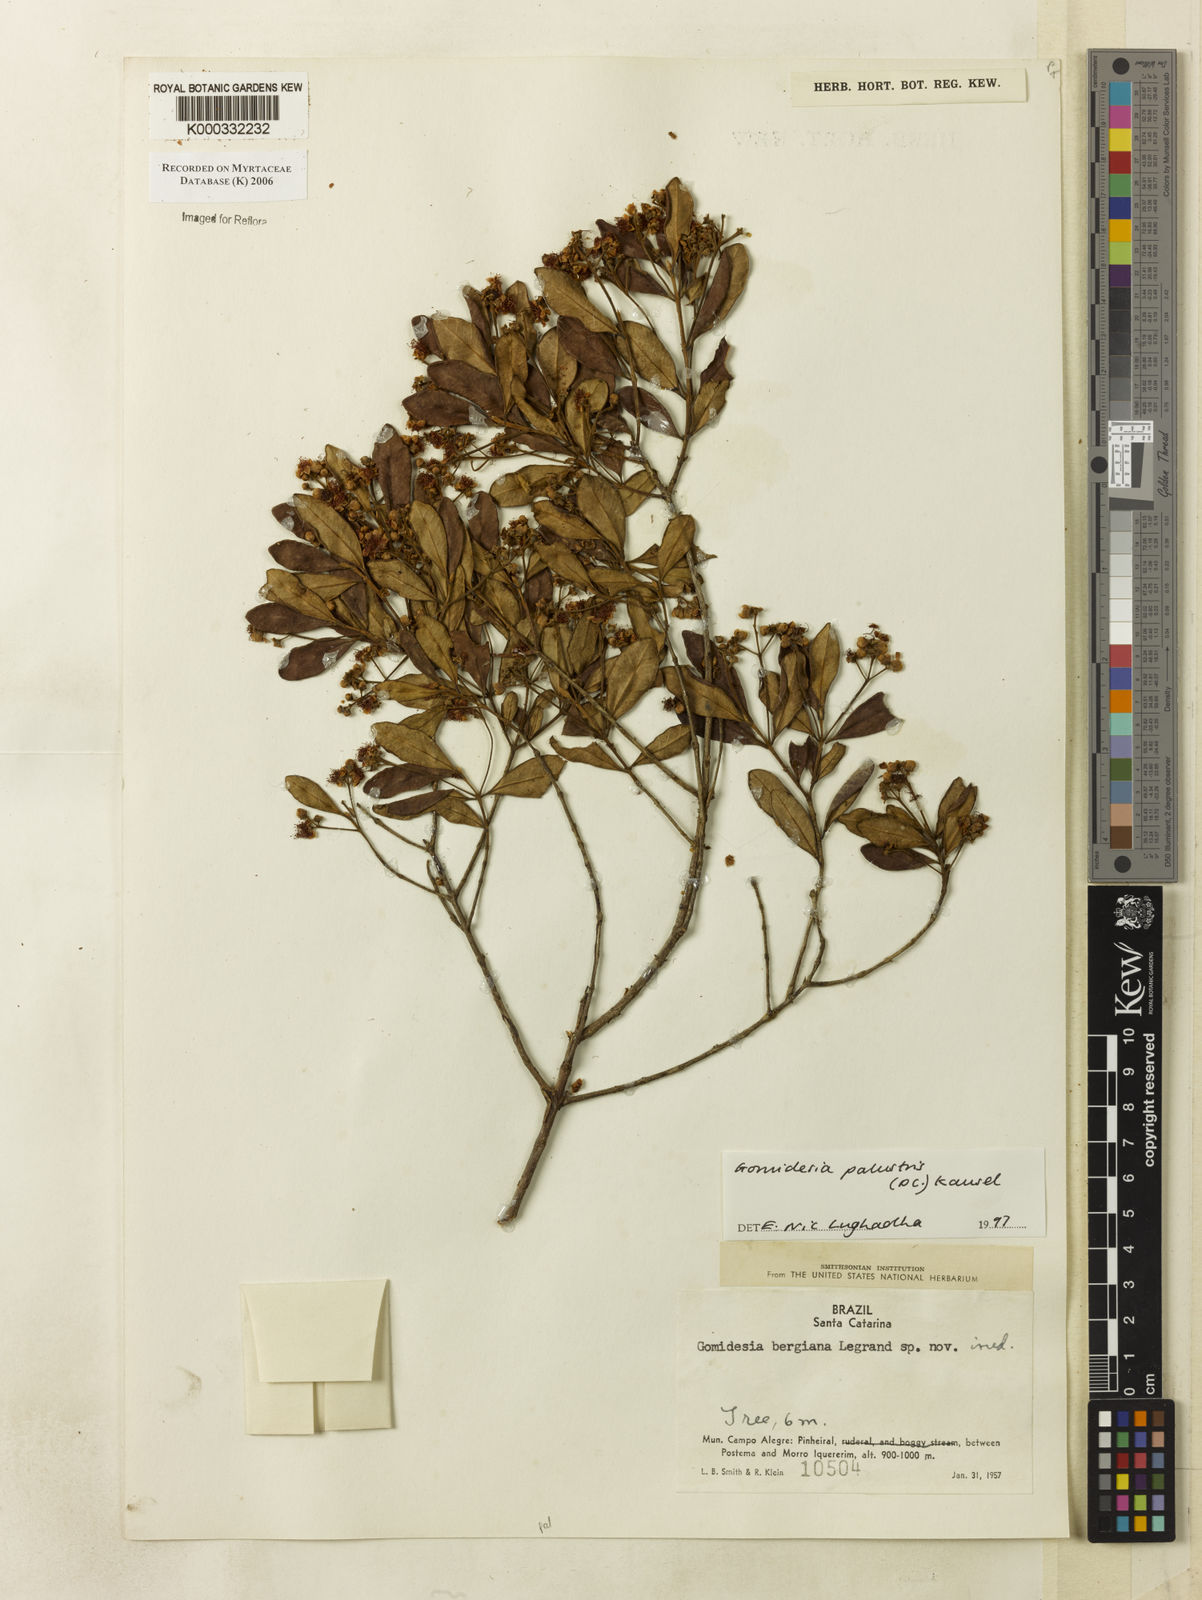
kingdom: Plantae
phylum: Tracheophyta
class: Magnoliopsida
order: Myrtales
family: Myrtaceae
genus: Myrcia
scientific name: Myrcia palustris
